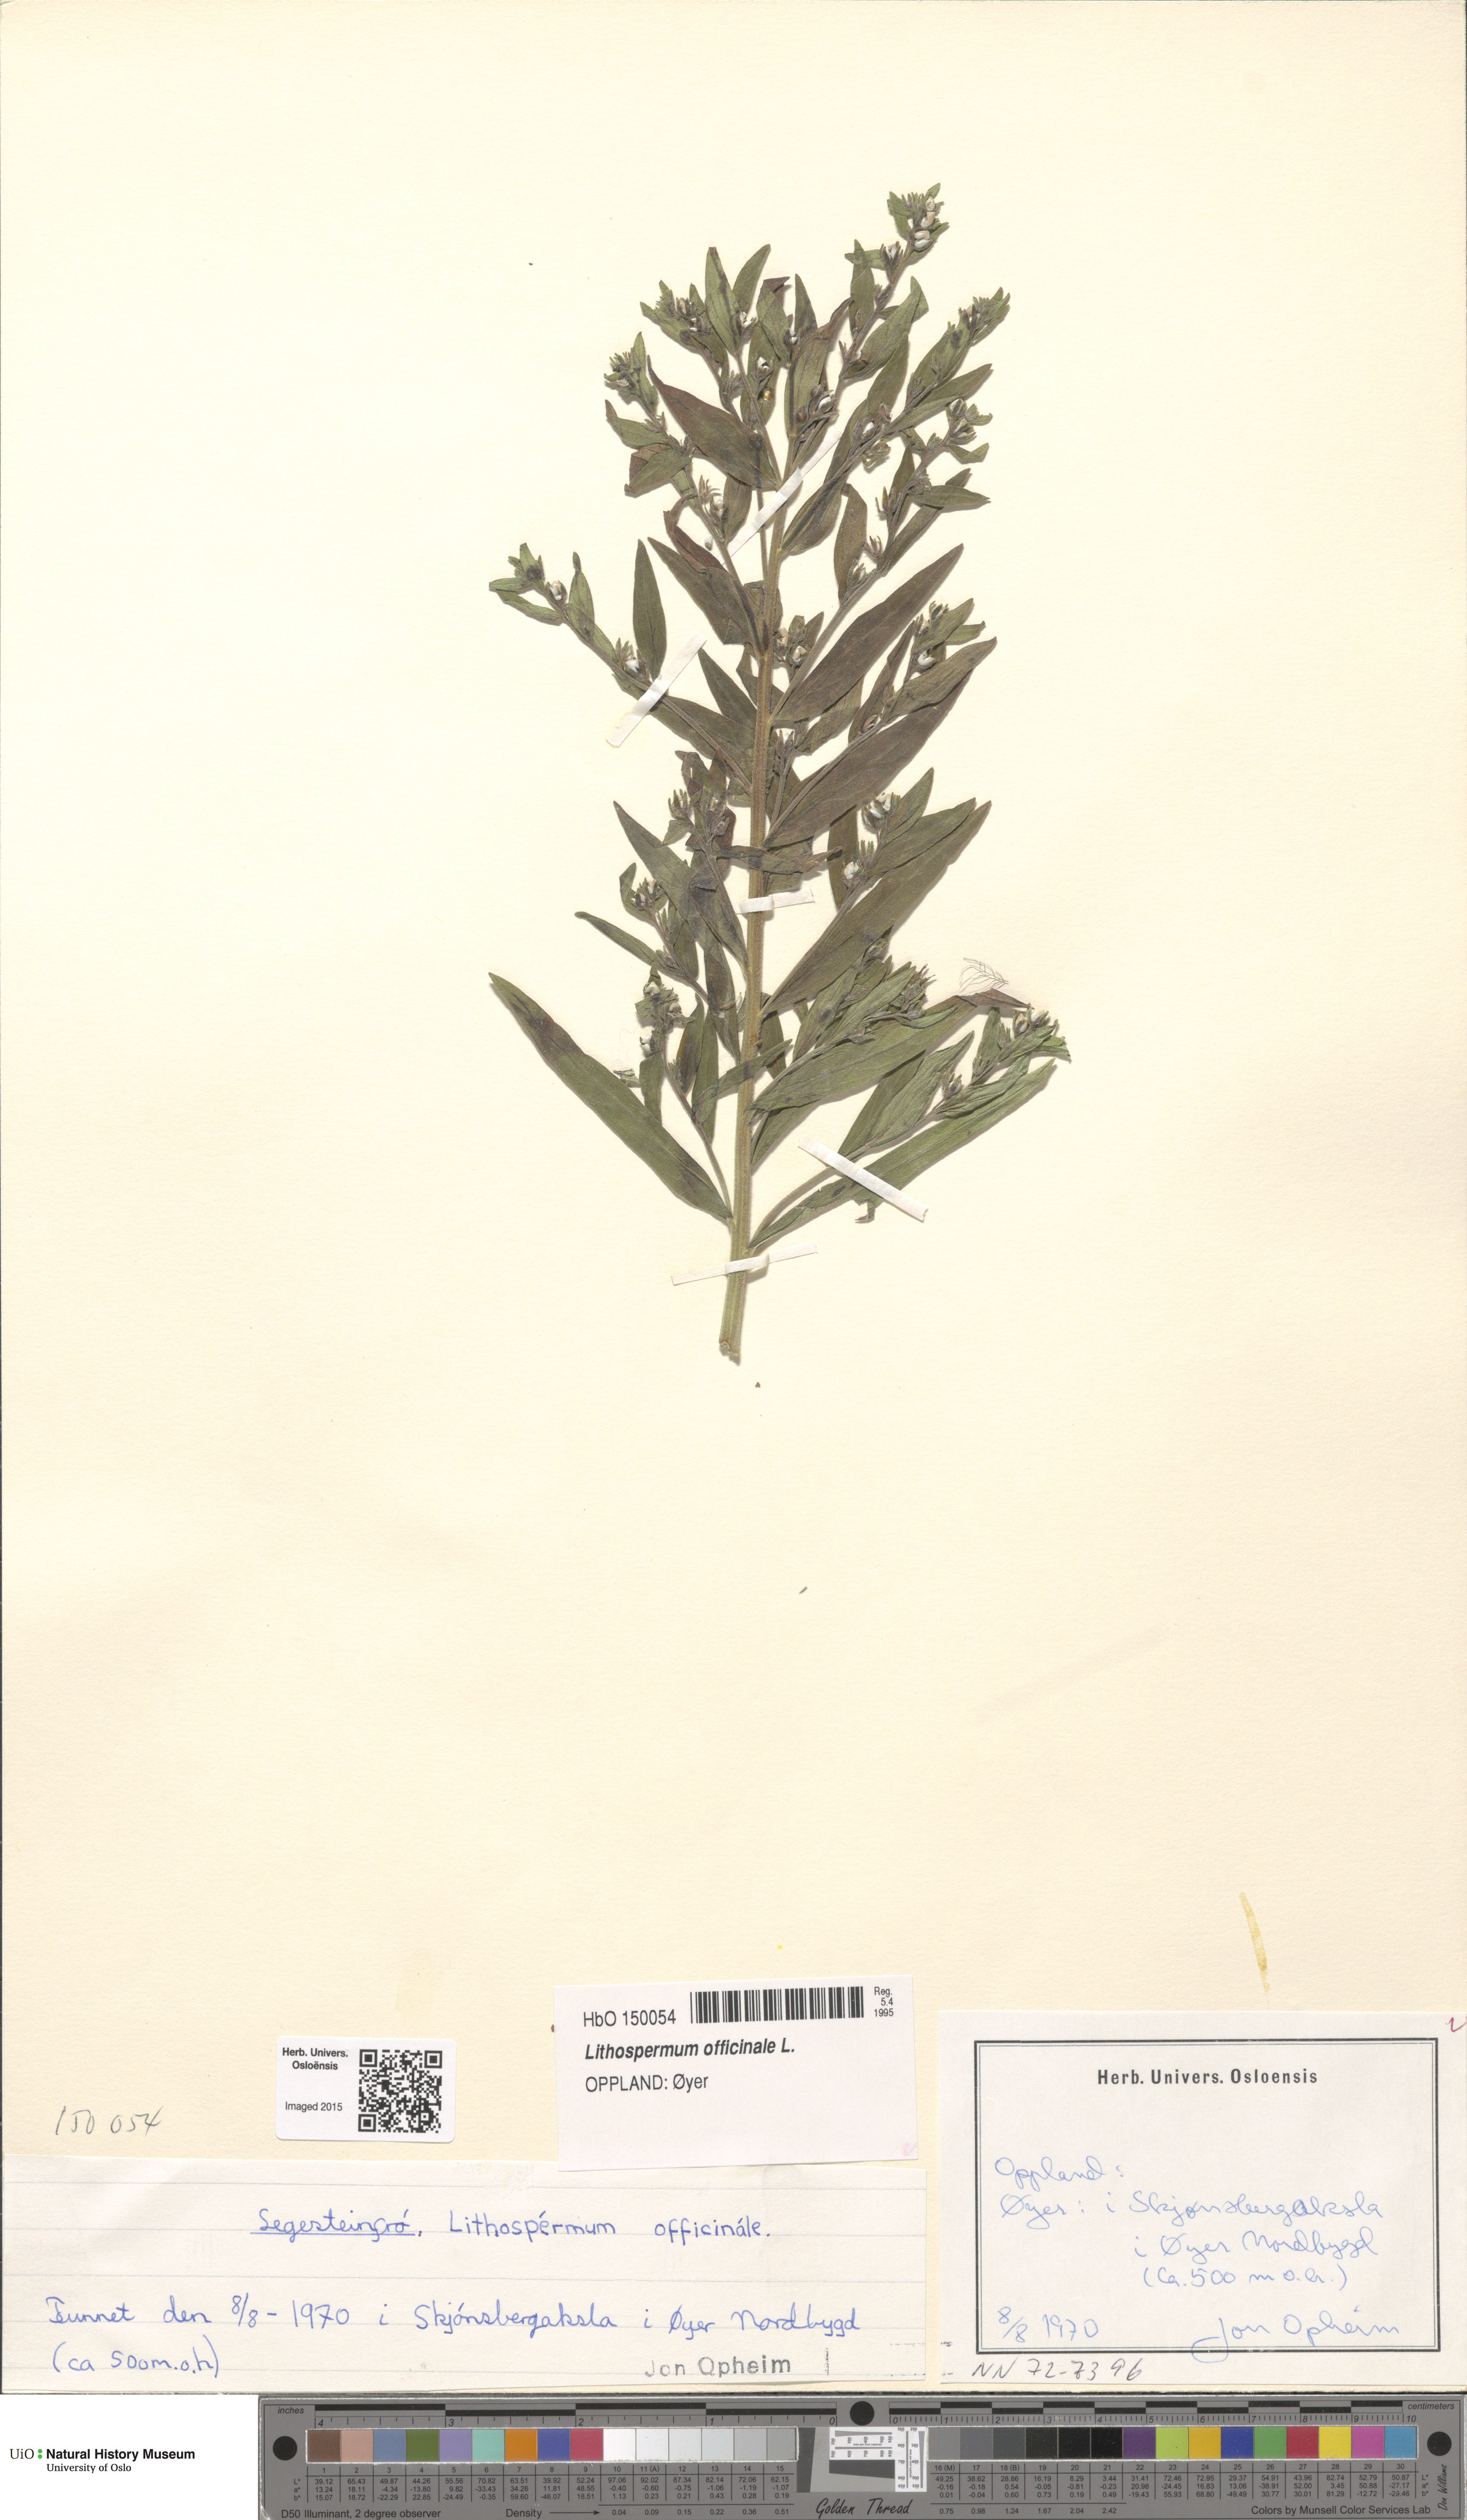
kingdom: Plantae
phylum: Tracheophyta
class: Magnoliopsida
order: Boraginales
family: Boraginaceae
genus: Lithospermum
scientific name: Lithospermum officinale
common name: Common gromwell
